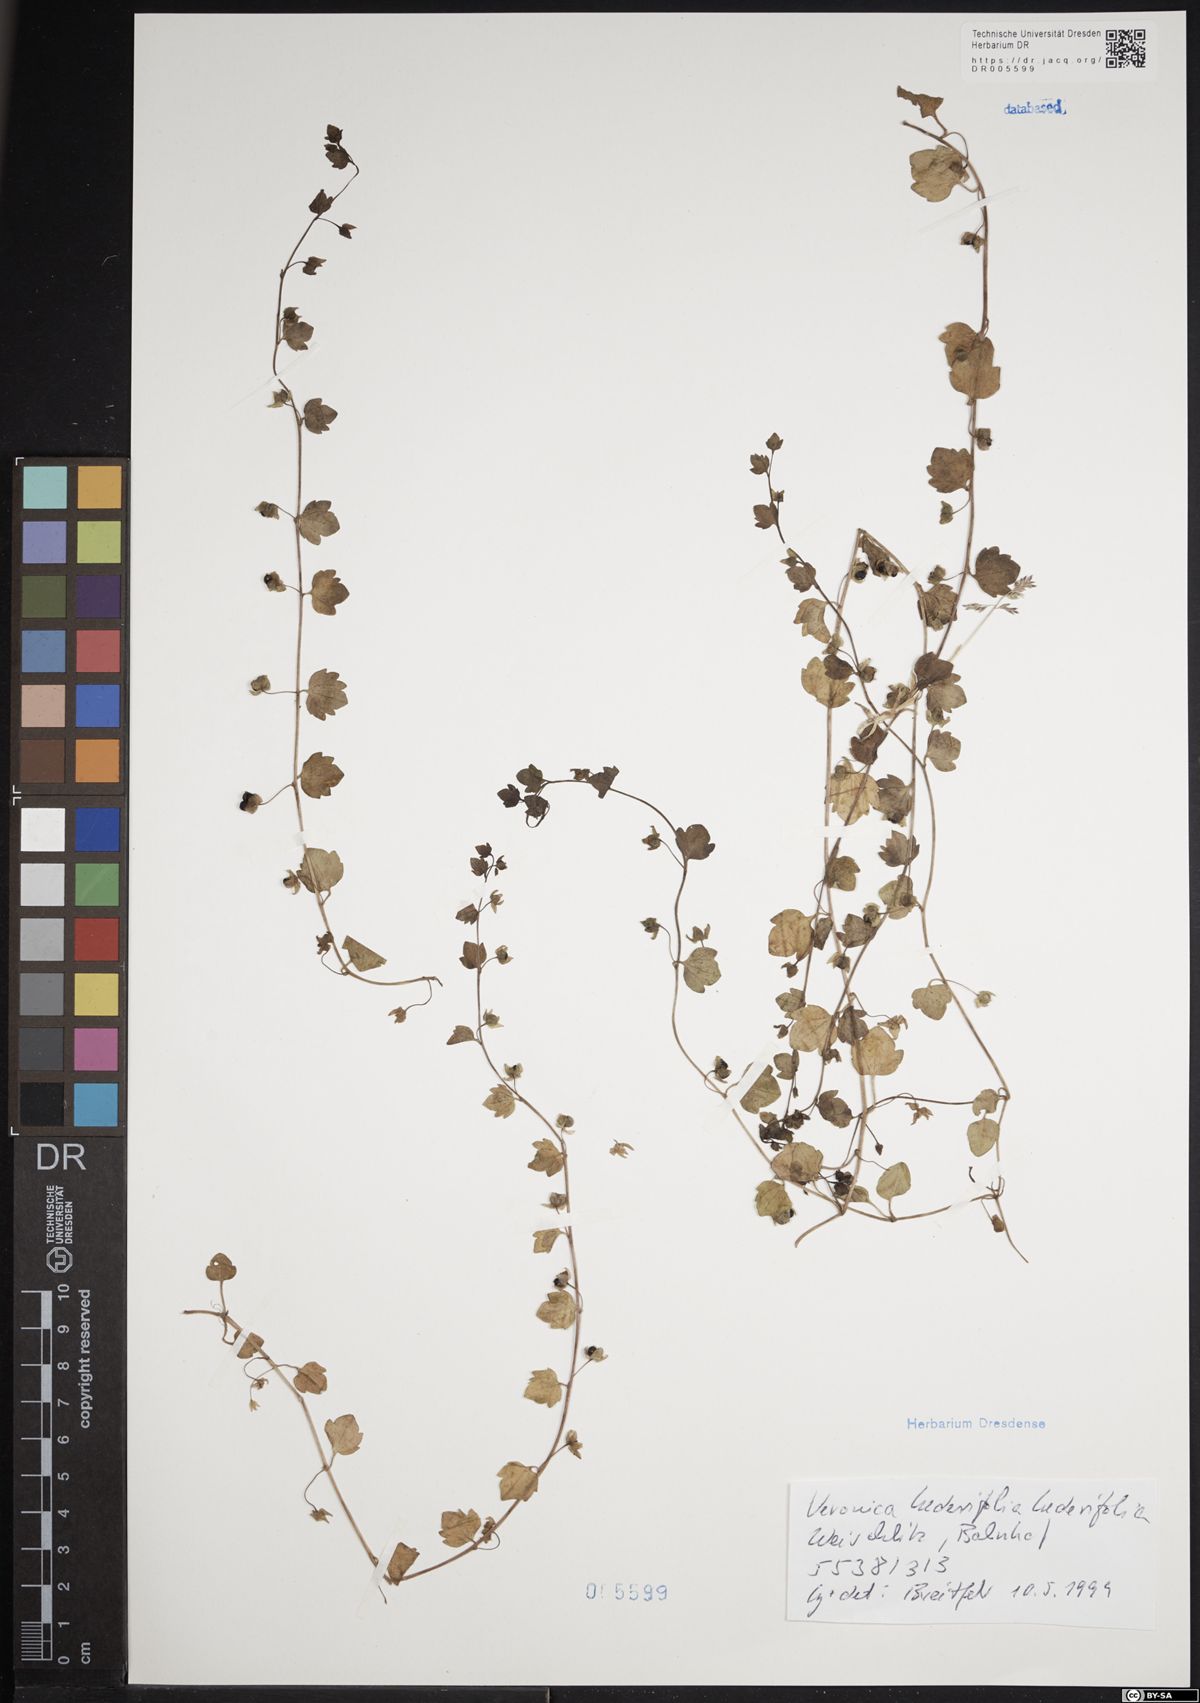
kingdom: Plantae
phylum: Tracheophyta
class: Magnoliopsida
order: Lamiales
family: Plantaginaceae
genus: Veronica
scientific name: Veronica hederifolia
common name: Ivy-leaved speedwell
